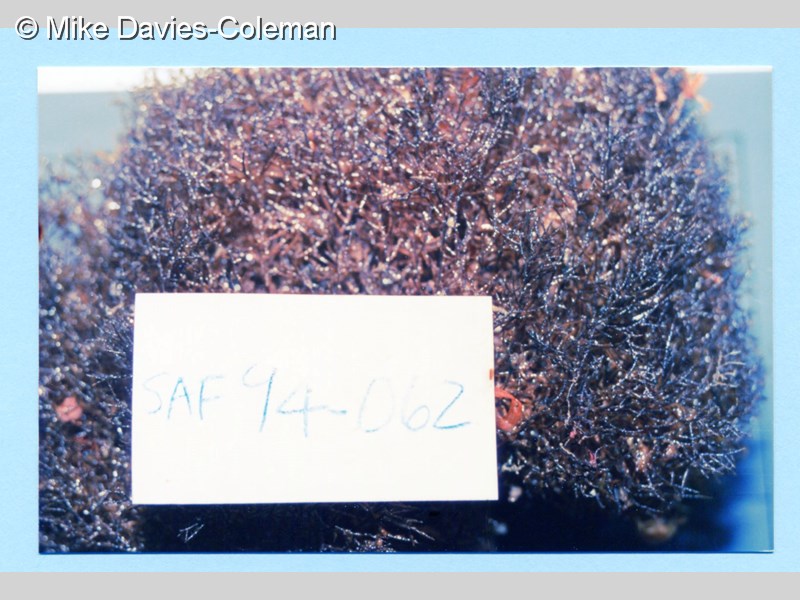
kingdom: Animalia
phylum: Cnidaria
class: Anthozoa
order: Antipatharia
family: Antipathidae
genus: Antipathes
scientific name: Antipathes
